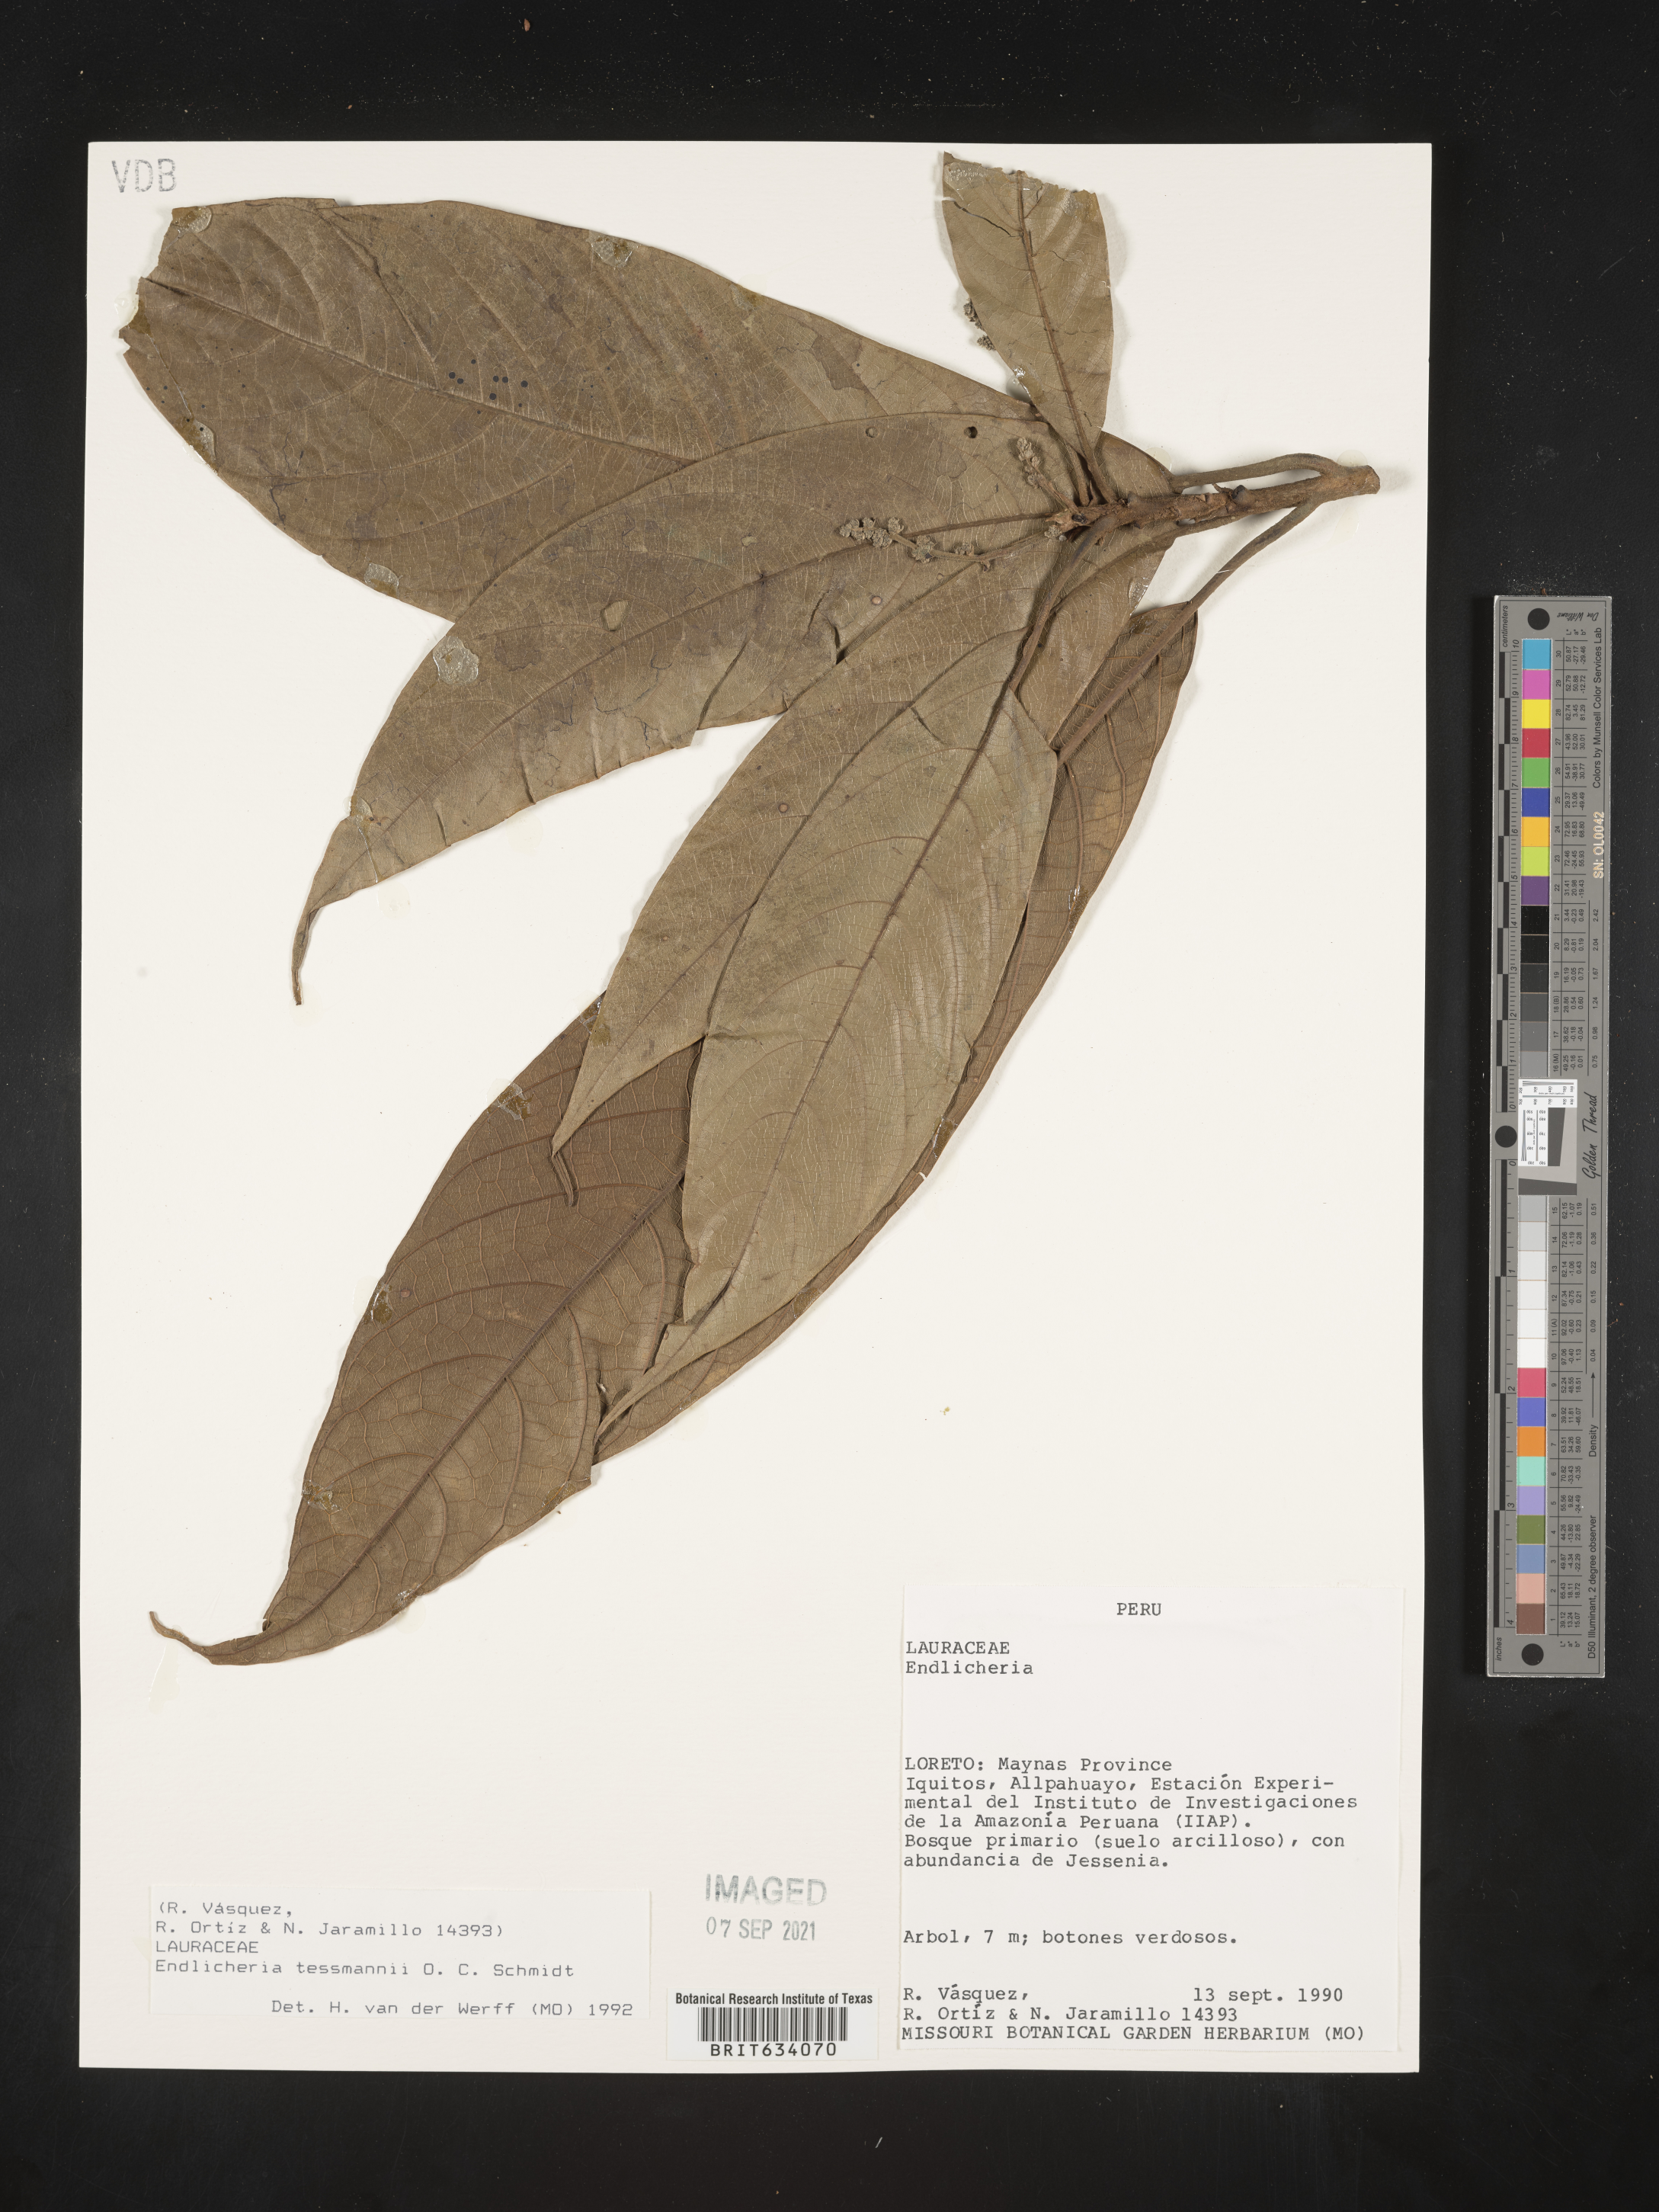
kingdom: Plantae
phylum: Tracheophyta
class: Magnoliopsida
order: Laurales
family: Lauraceae
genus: Endlicheria
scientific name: Endlicheria
